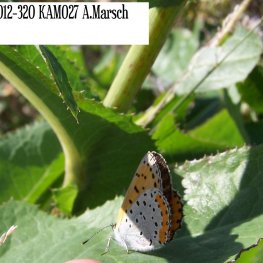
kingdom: Animalia
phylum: Arthropoda
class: Insecta
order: Lepidoptera
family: Sesiidae
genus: Sesia
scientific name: Sesia Lycaena hyllus
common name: Bronze Copper
